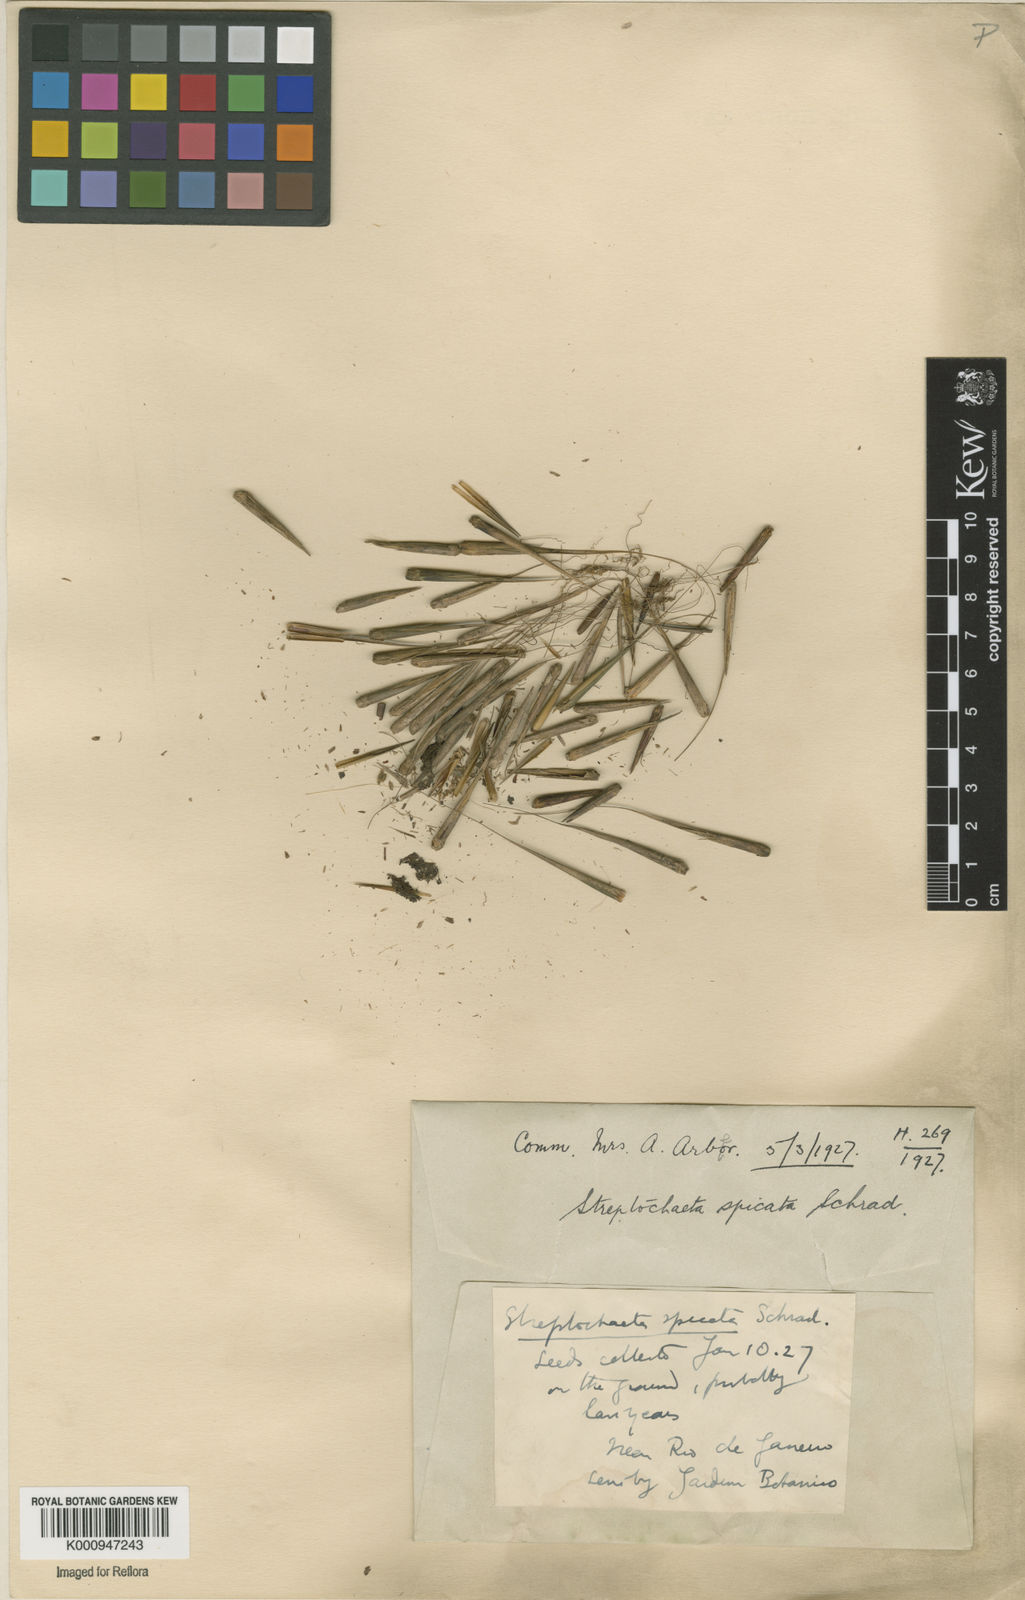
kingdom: Plantae
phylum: Tracheophyta
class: Liliopsida
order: Poales
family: Poaceae
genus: Streptochaeta
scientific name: Streptochaeta spicata
